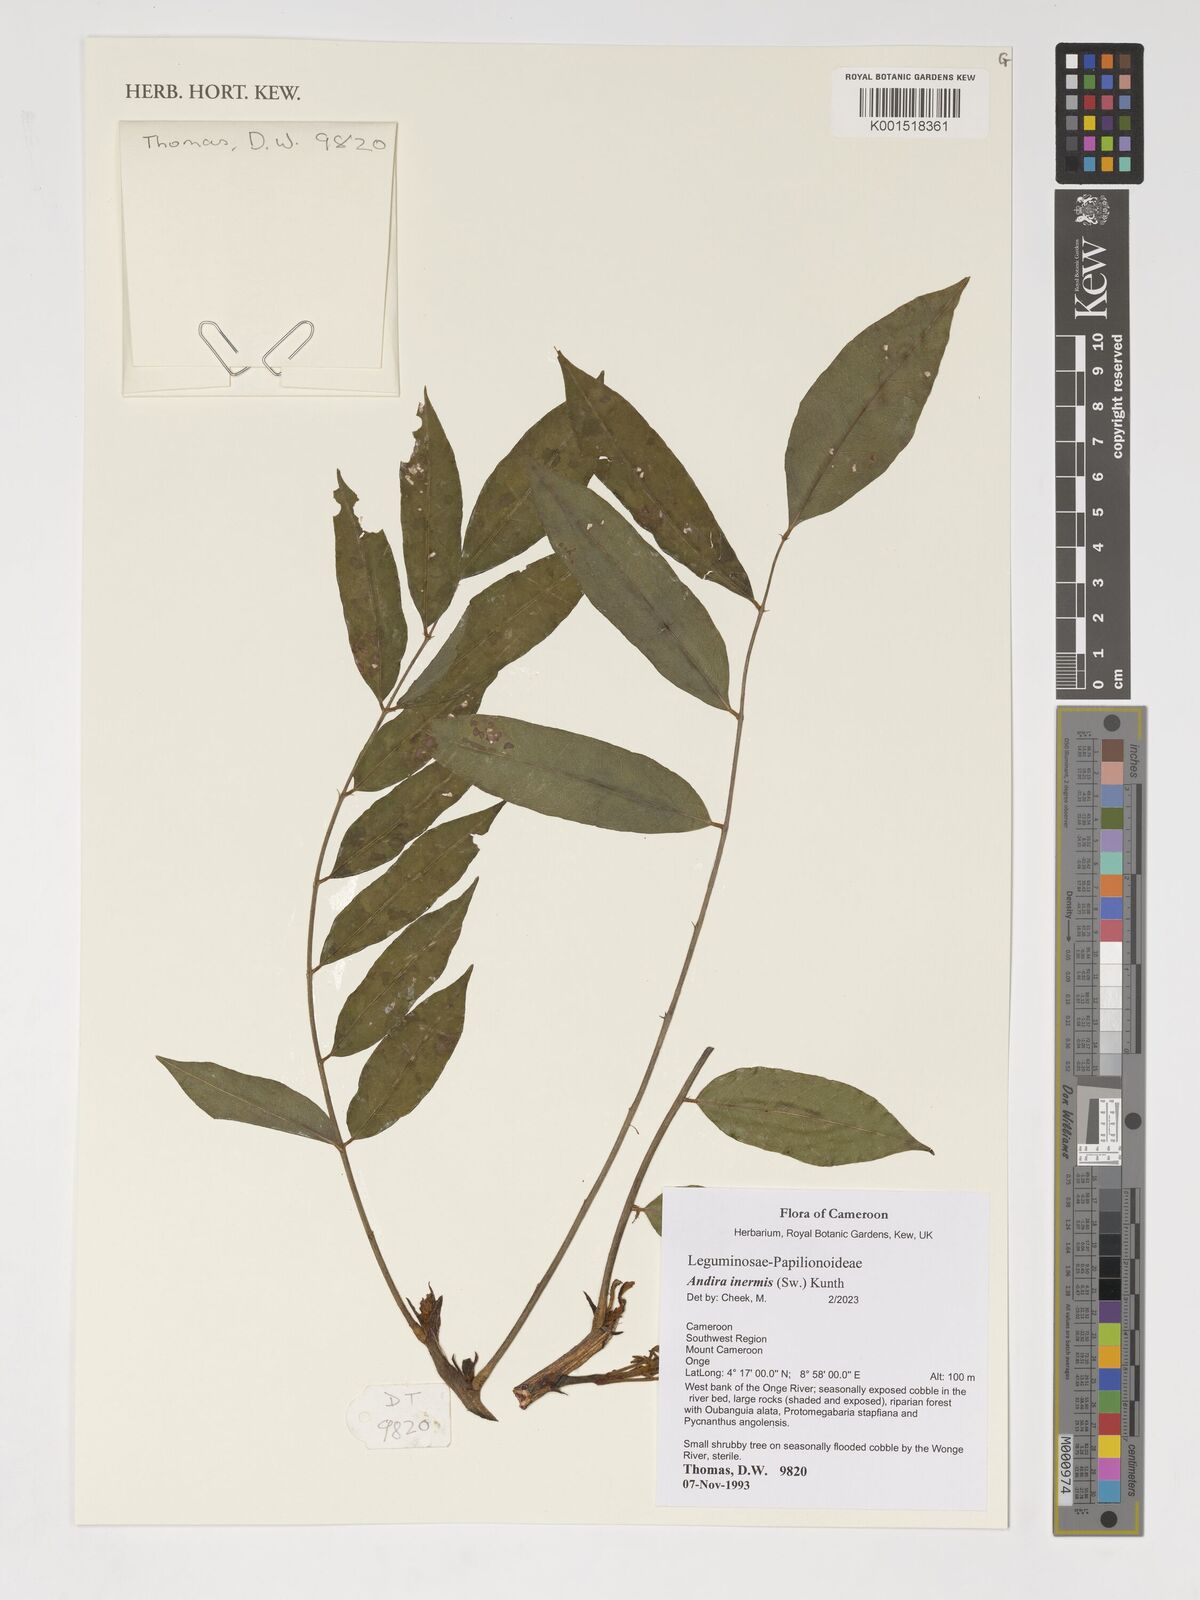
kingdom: Plantae
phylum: Tracheophyta
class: Magnoliopsida
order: Fabales
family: Fabaceae
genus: Andira
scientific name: Andira
